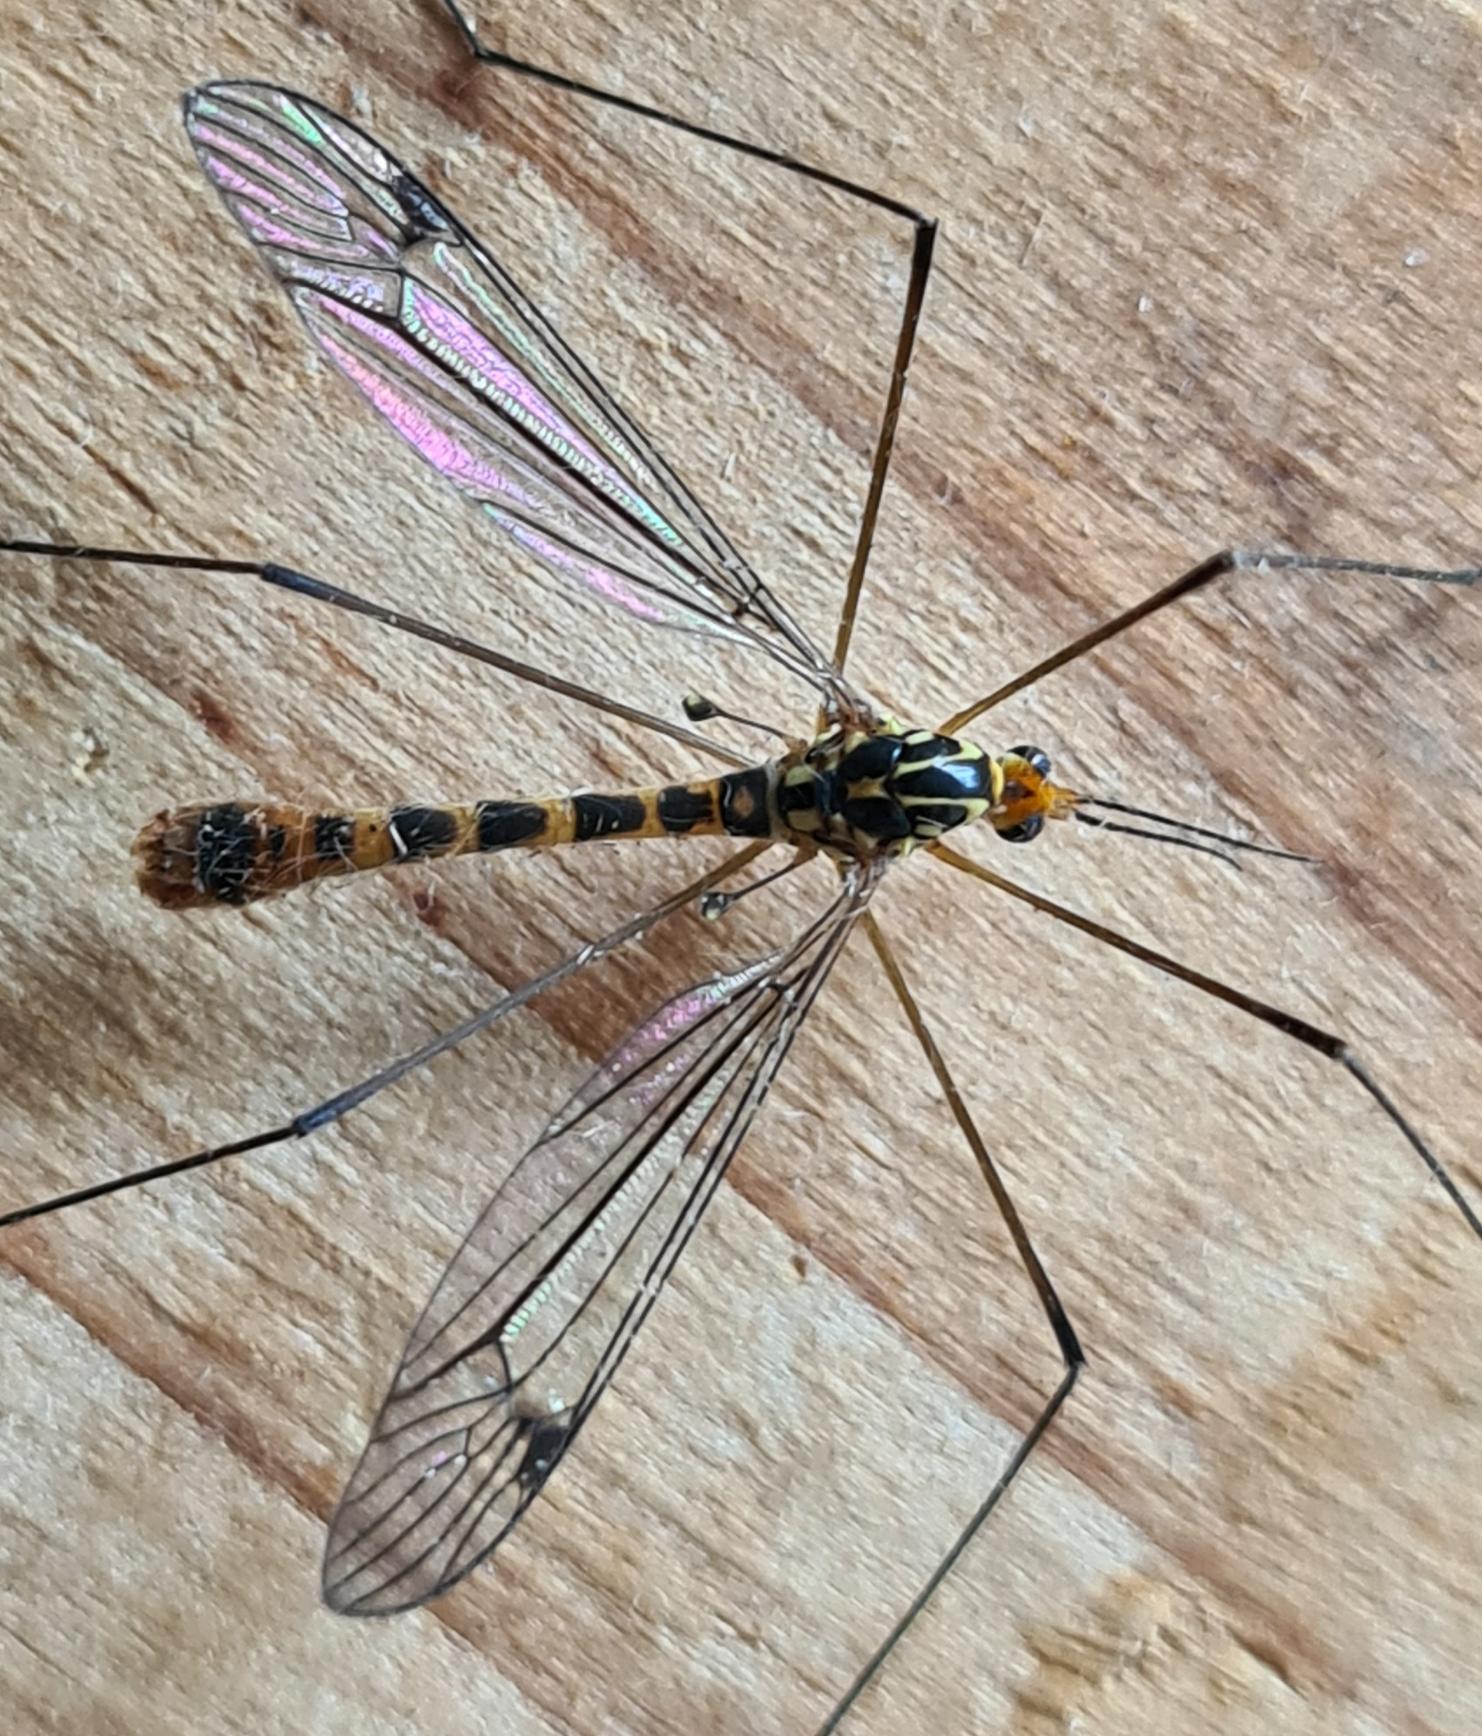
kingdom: Animalia
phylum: Arthropoda
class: Insecta
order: Diptera
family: Tipulidae
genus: Nephrotoma
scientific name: Nephrotoma flavipalpis
